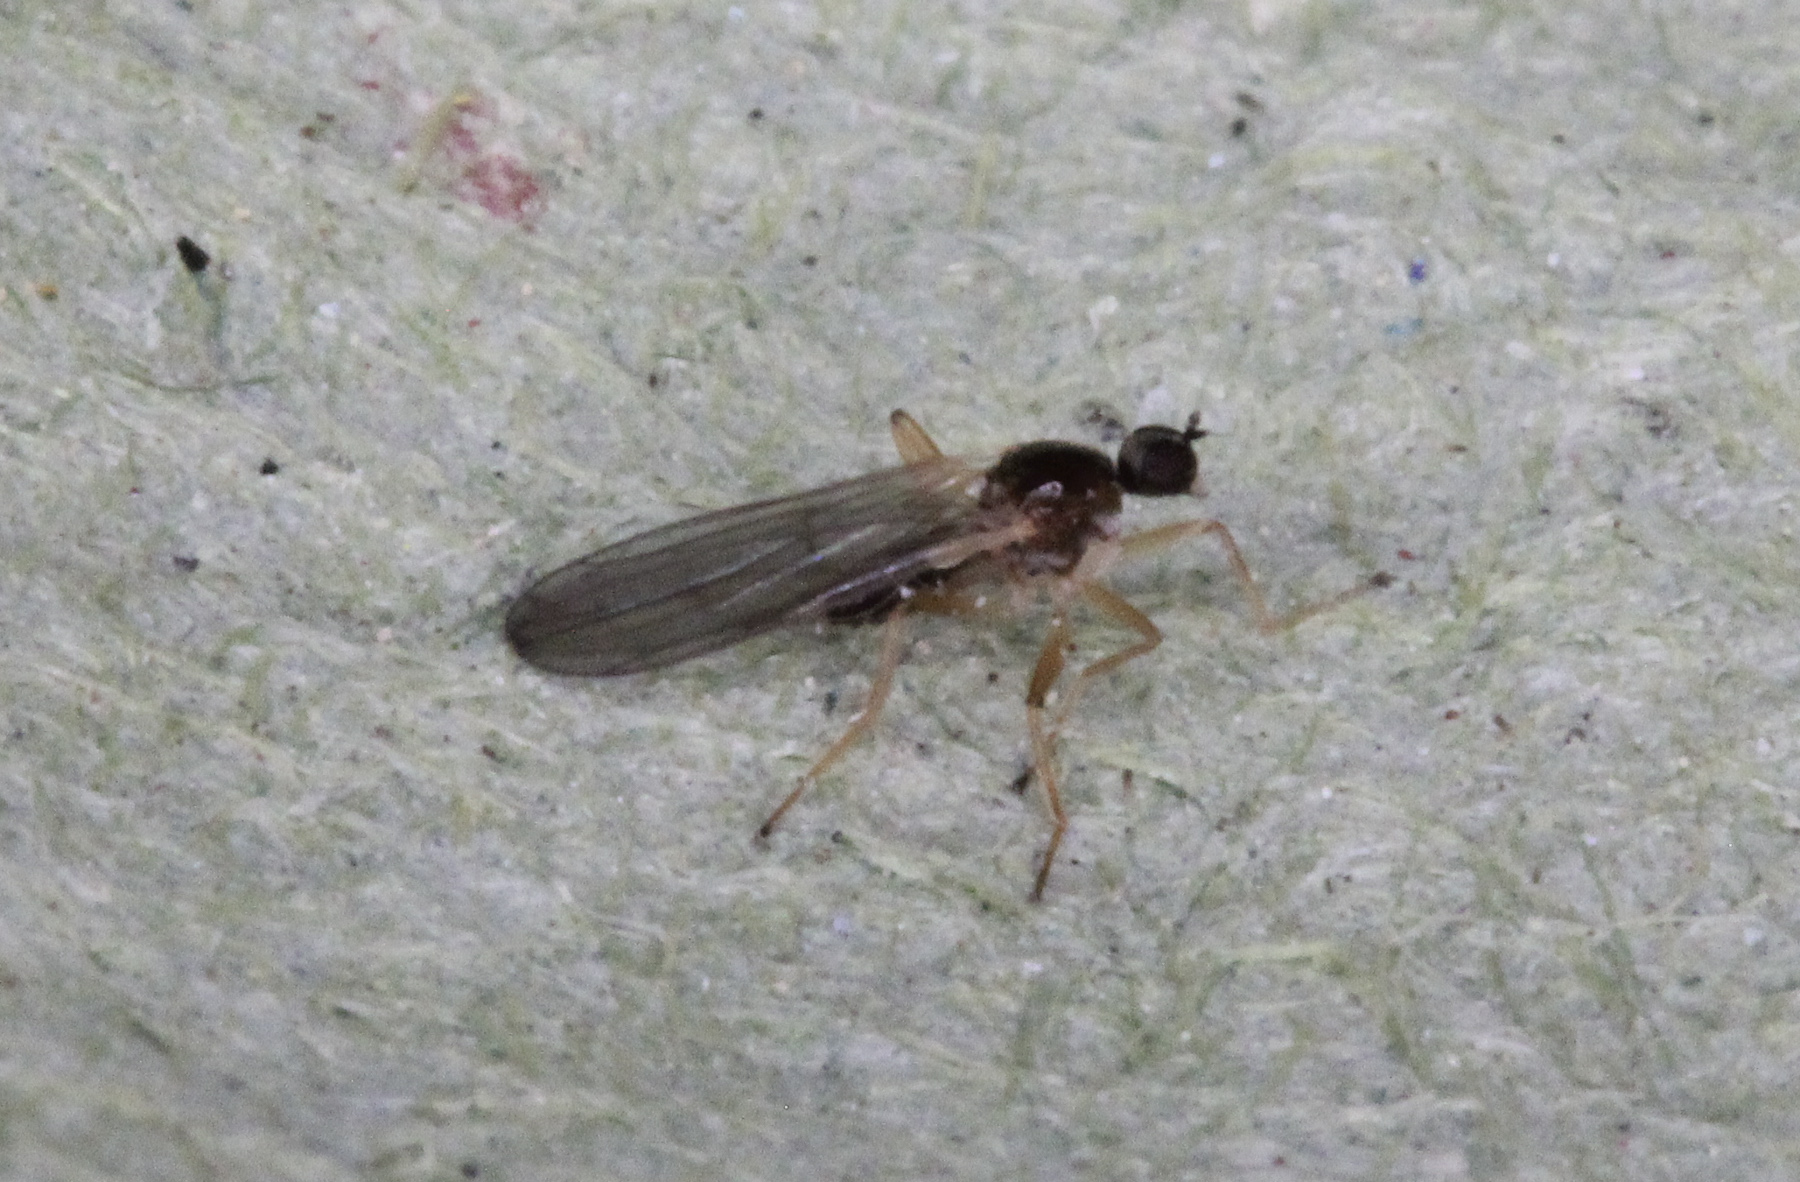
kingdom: Animalia
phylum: Arthropoda
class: Insecta
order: Diptera
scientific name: Diptera
